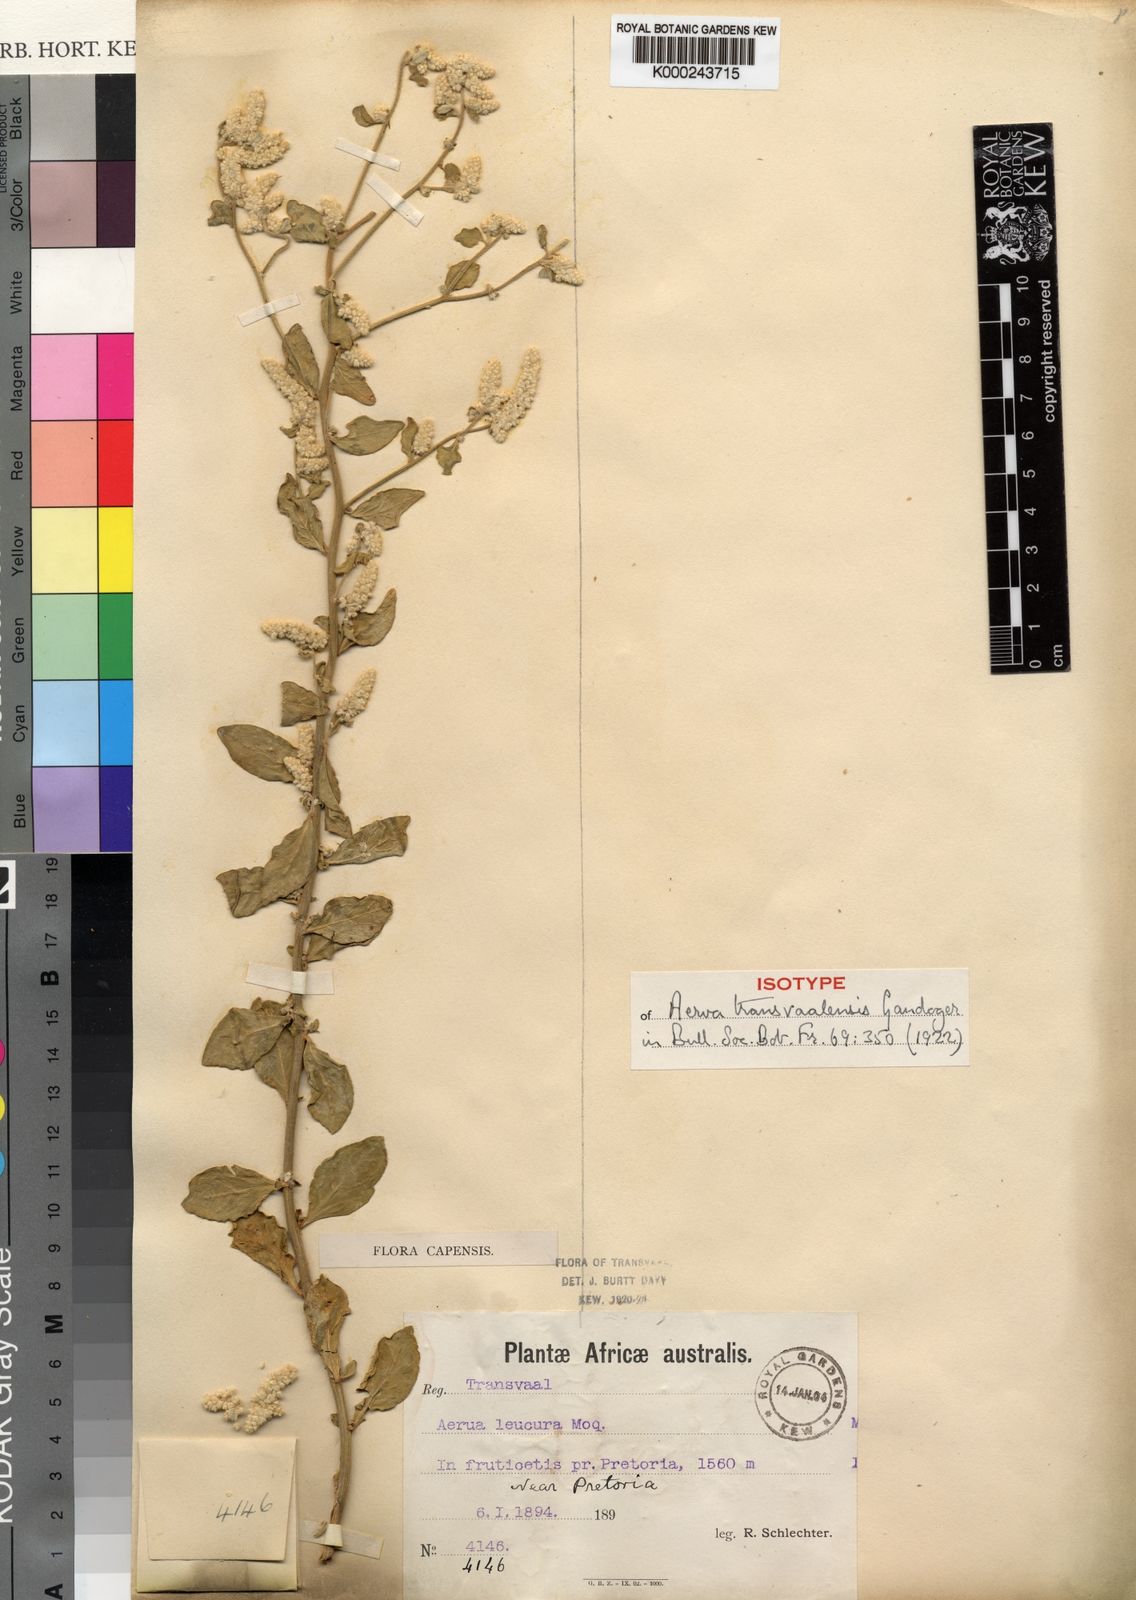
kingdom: Plantae
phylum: Tracheophyta
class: Magnoliopsida
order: Caryophyllales
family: Amaranthaceae
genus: Ouret
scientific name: Ouret leucura
